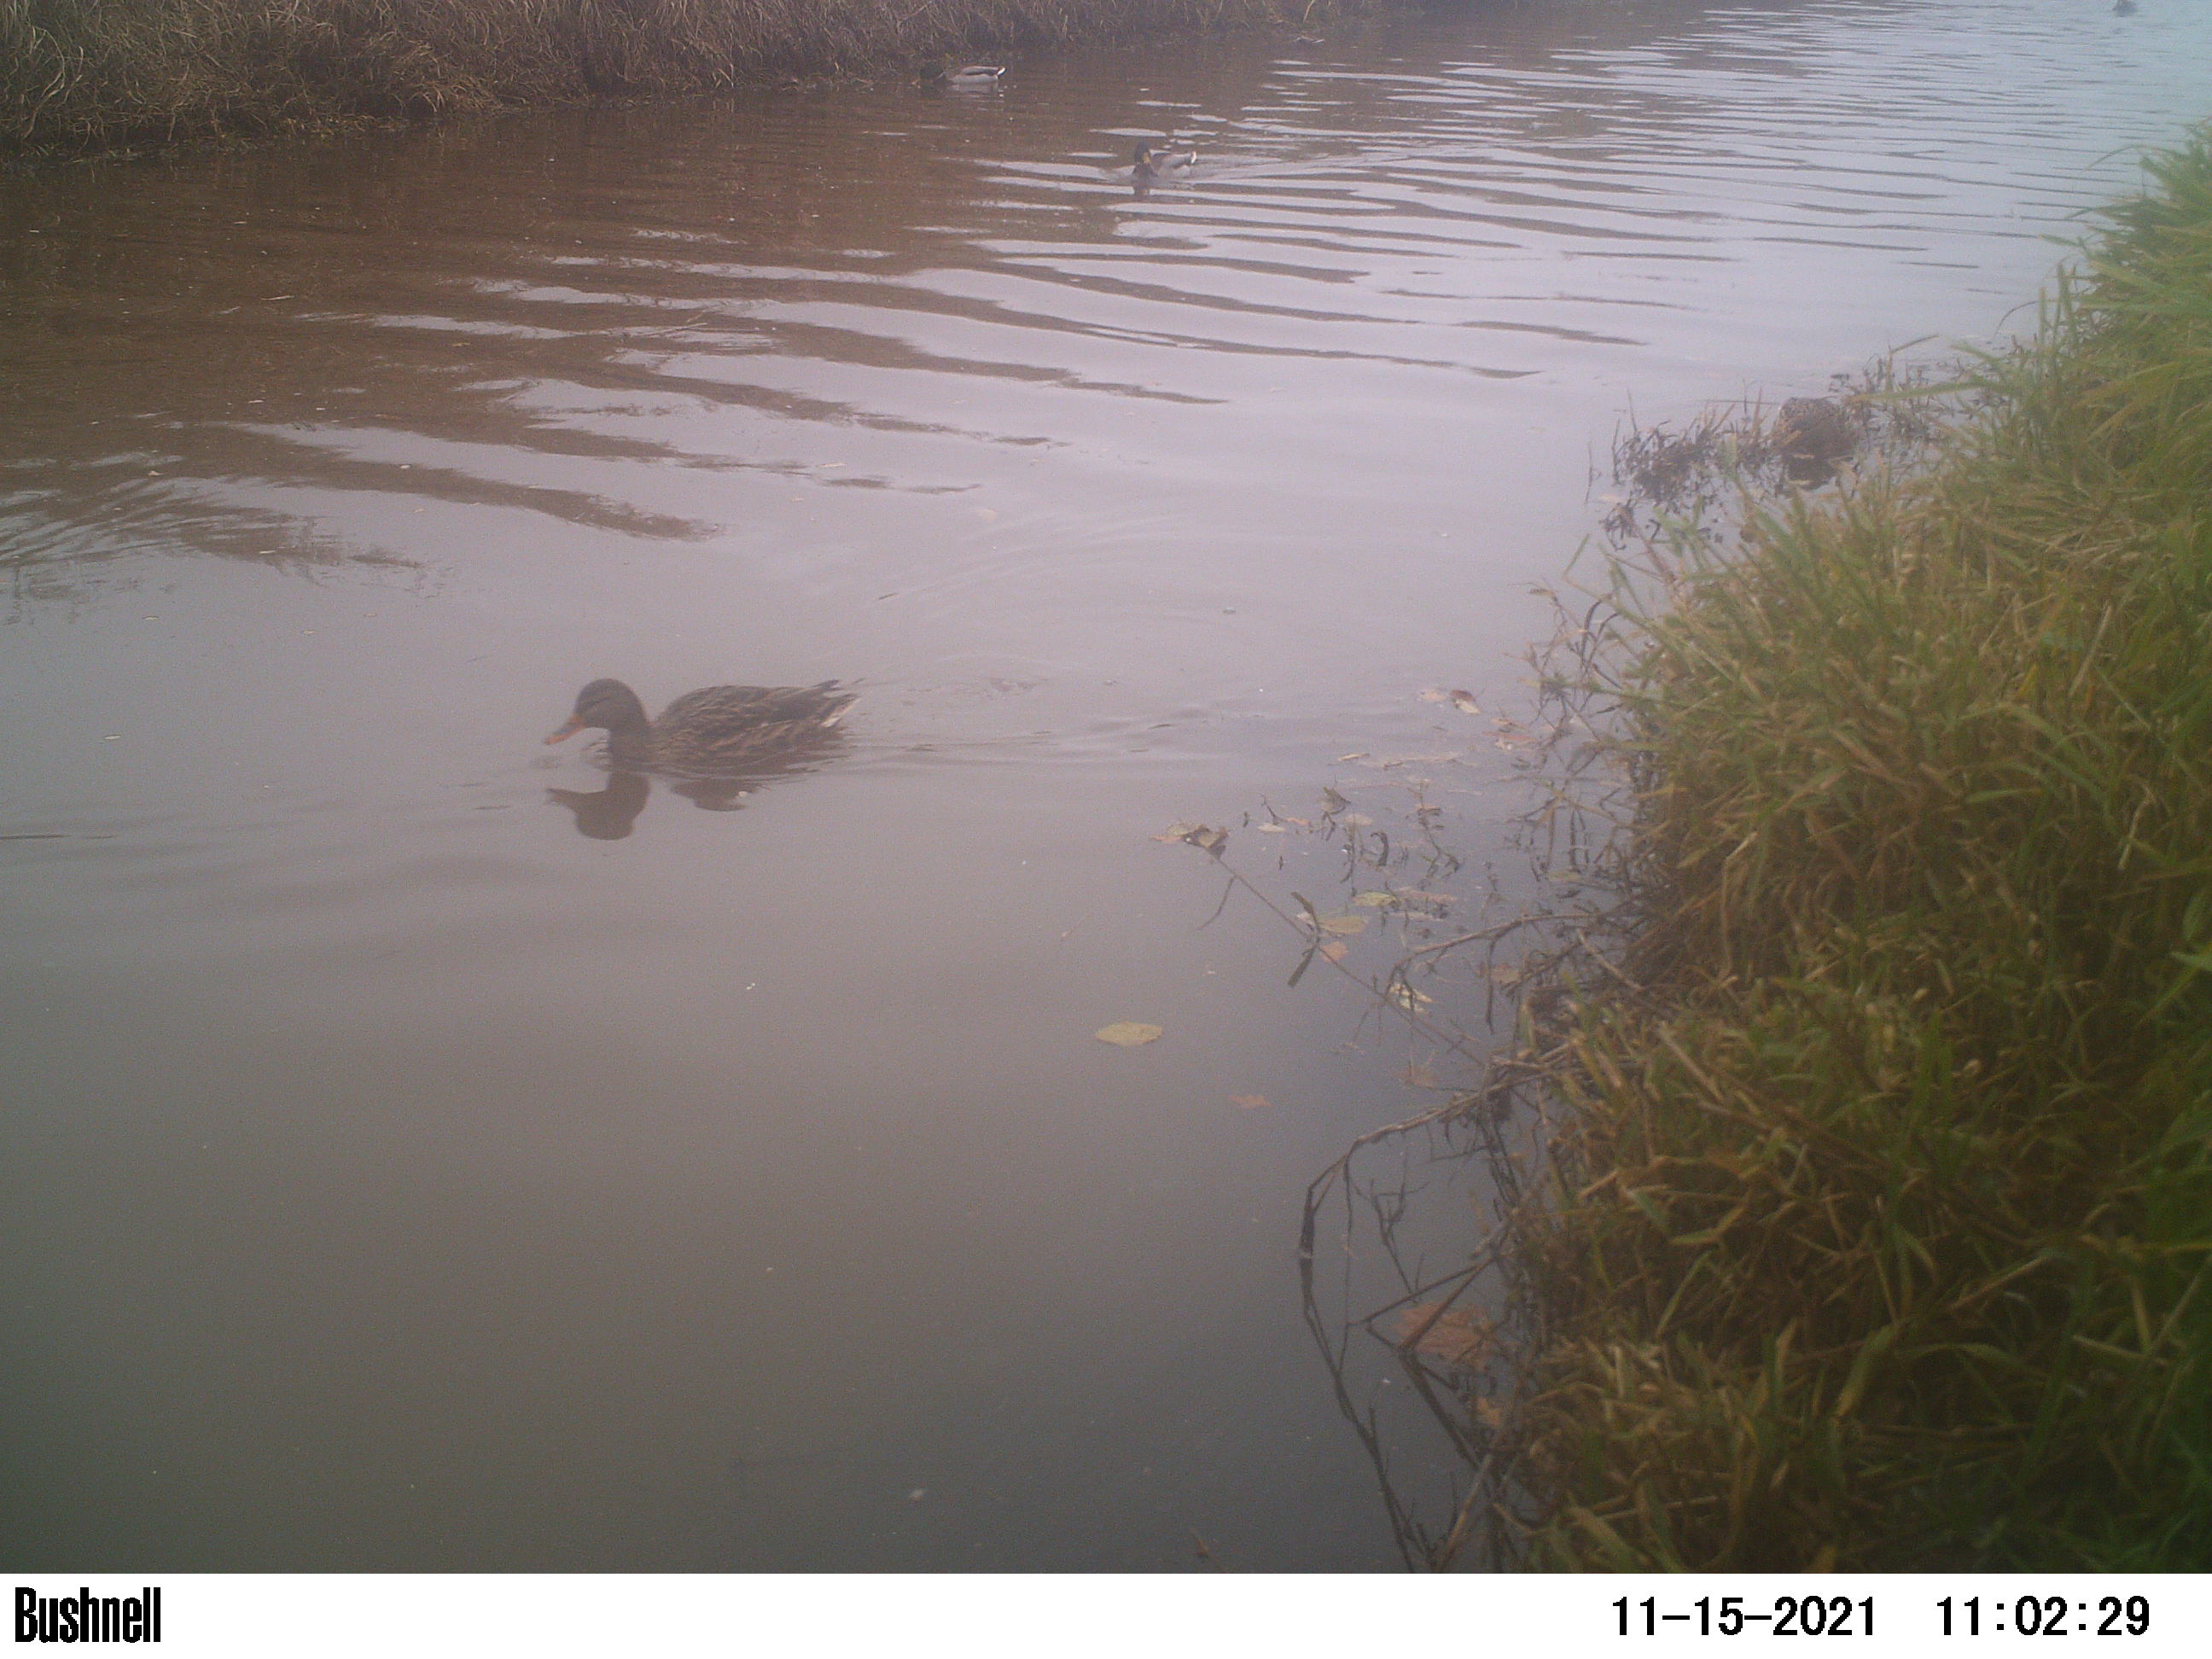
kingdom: Animalia
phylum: Chordata
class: Aves
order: Anseriformes
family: Anatidae
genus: Anas
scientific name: Anas
